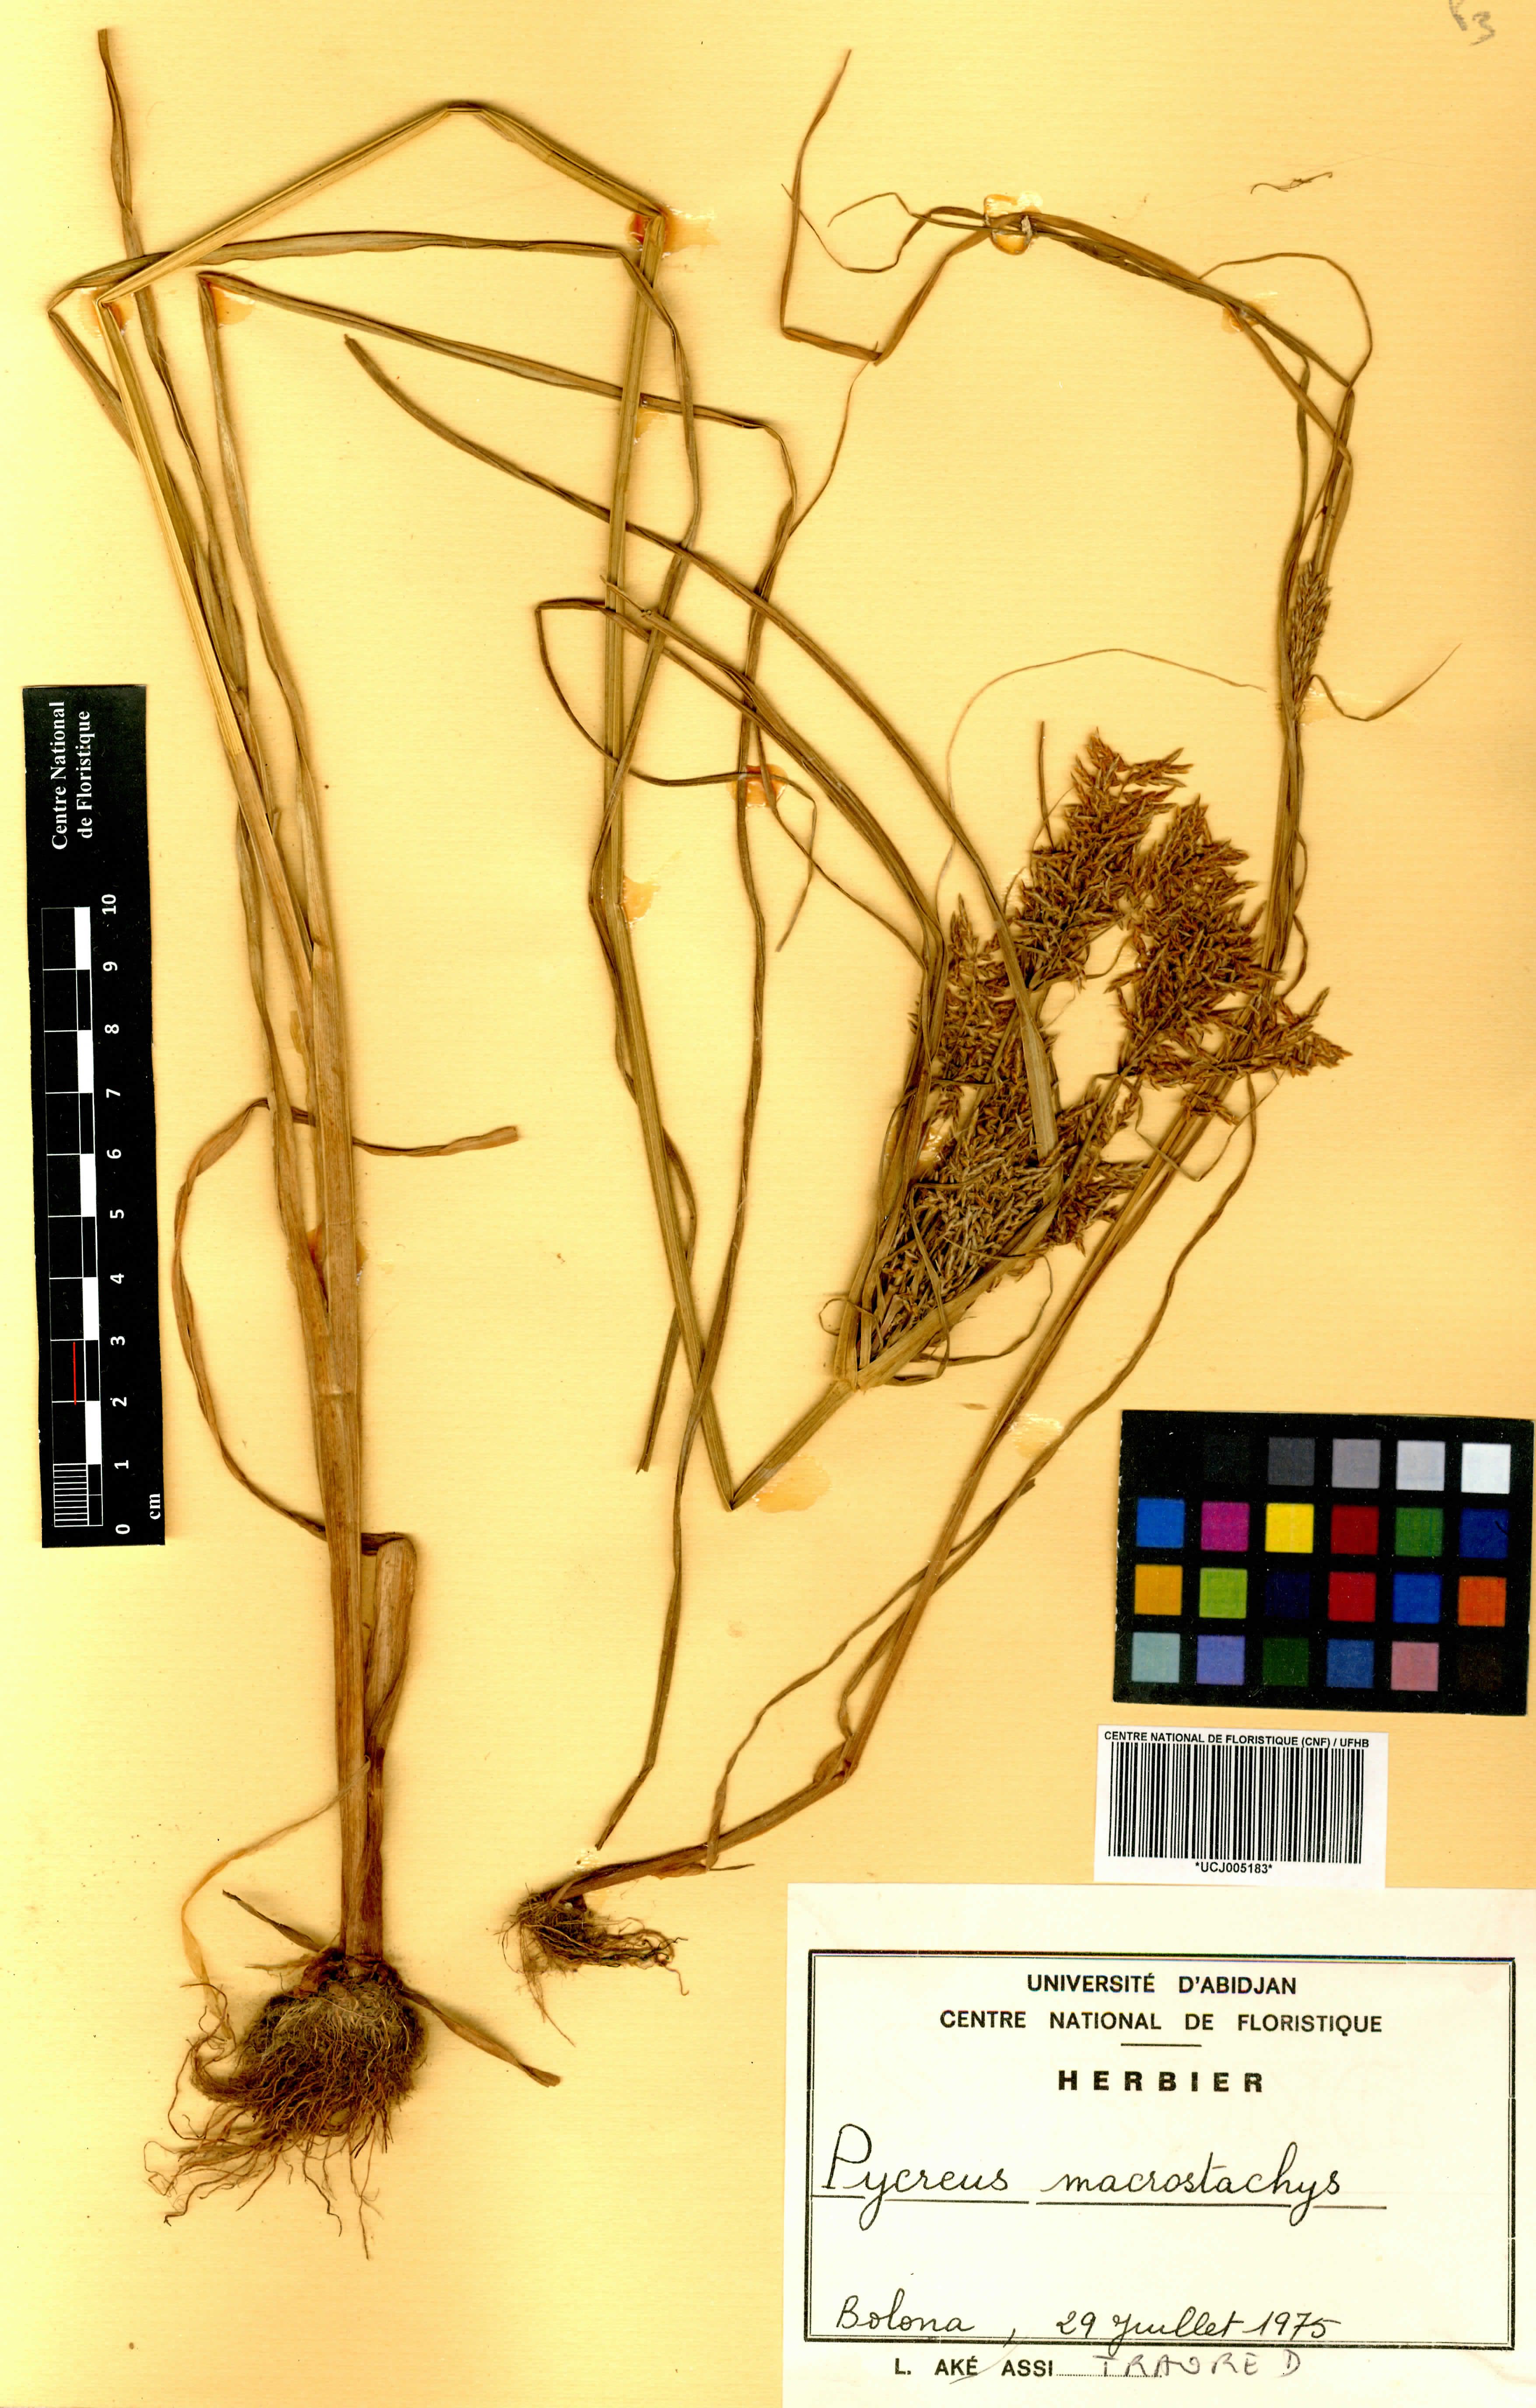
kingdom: Plantae
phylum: Tracheophyta
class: Liliopsida
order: Poales
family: Cyperaceae
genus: Cyperus
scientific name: Cyperus macrostachyos
